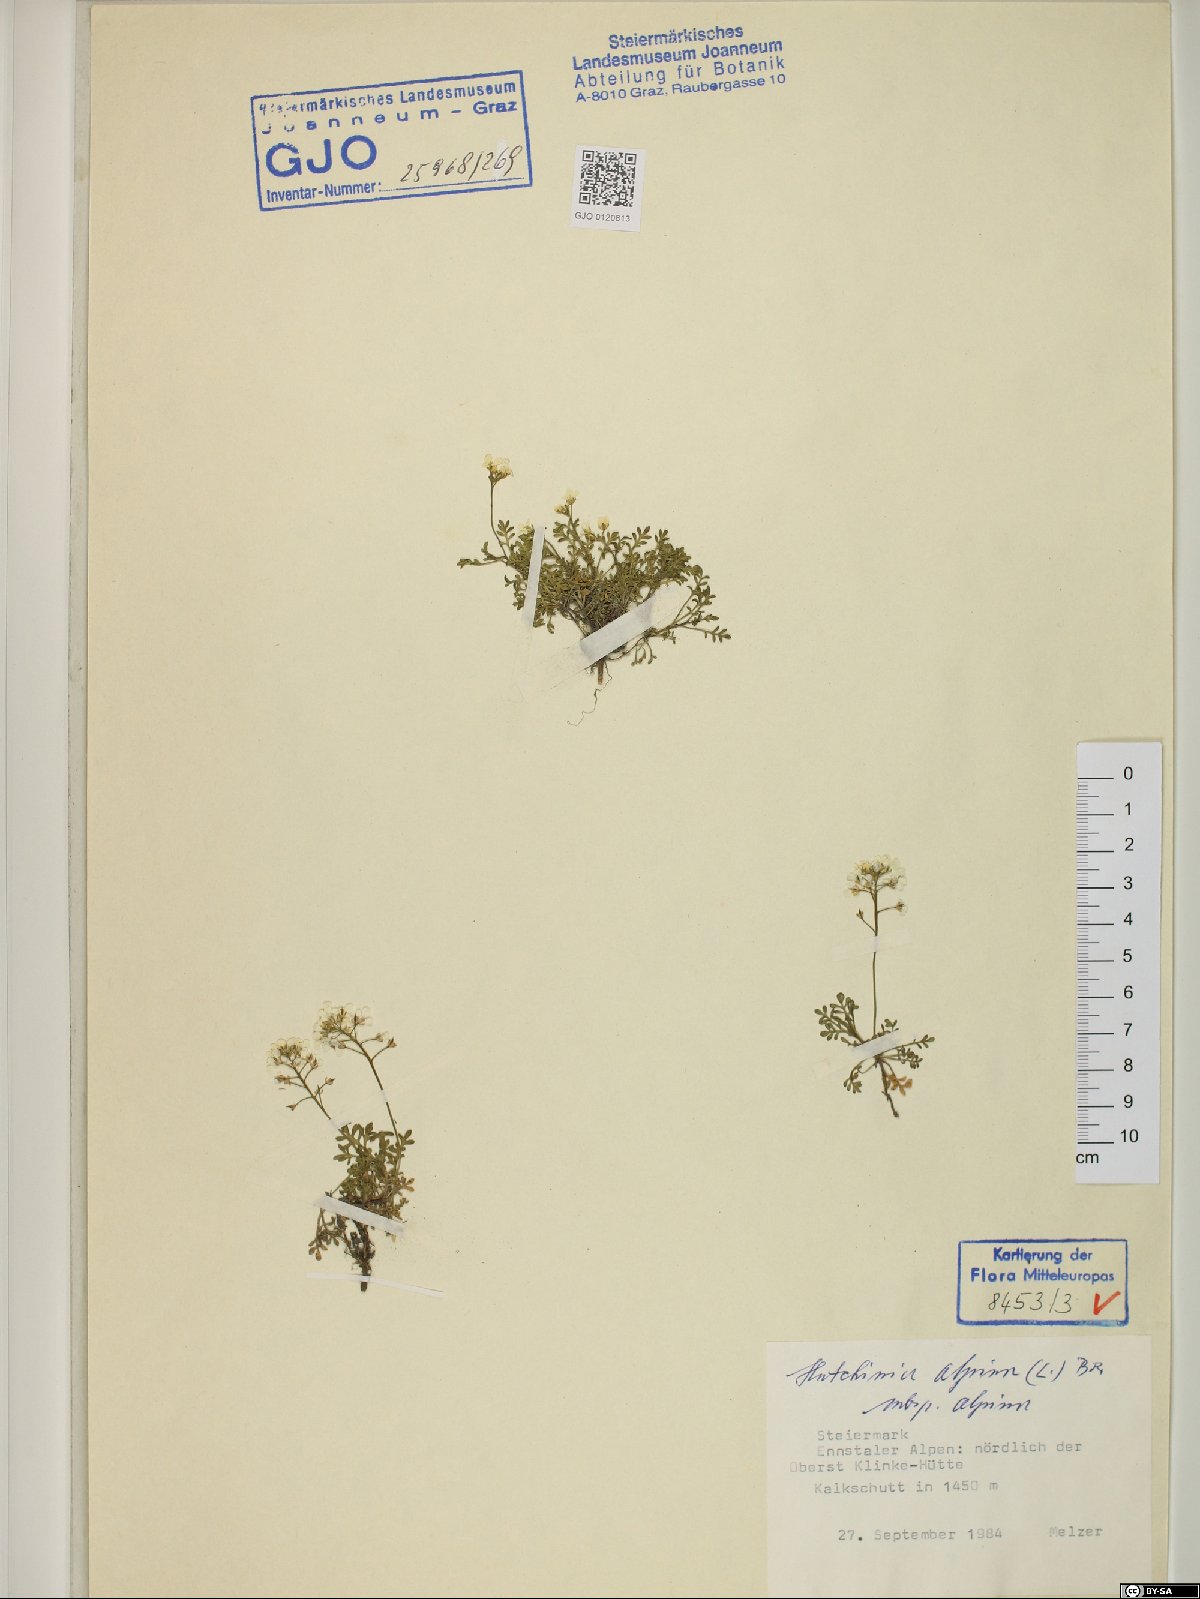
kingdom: Plantae
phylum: Tracheophyta
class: Magnoliopsida
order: Brassicales
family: Brassicaceae
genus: Hornungia
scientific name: Hornungia alpina
